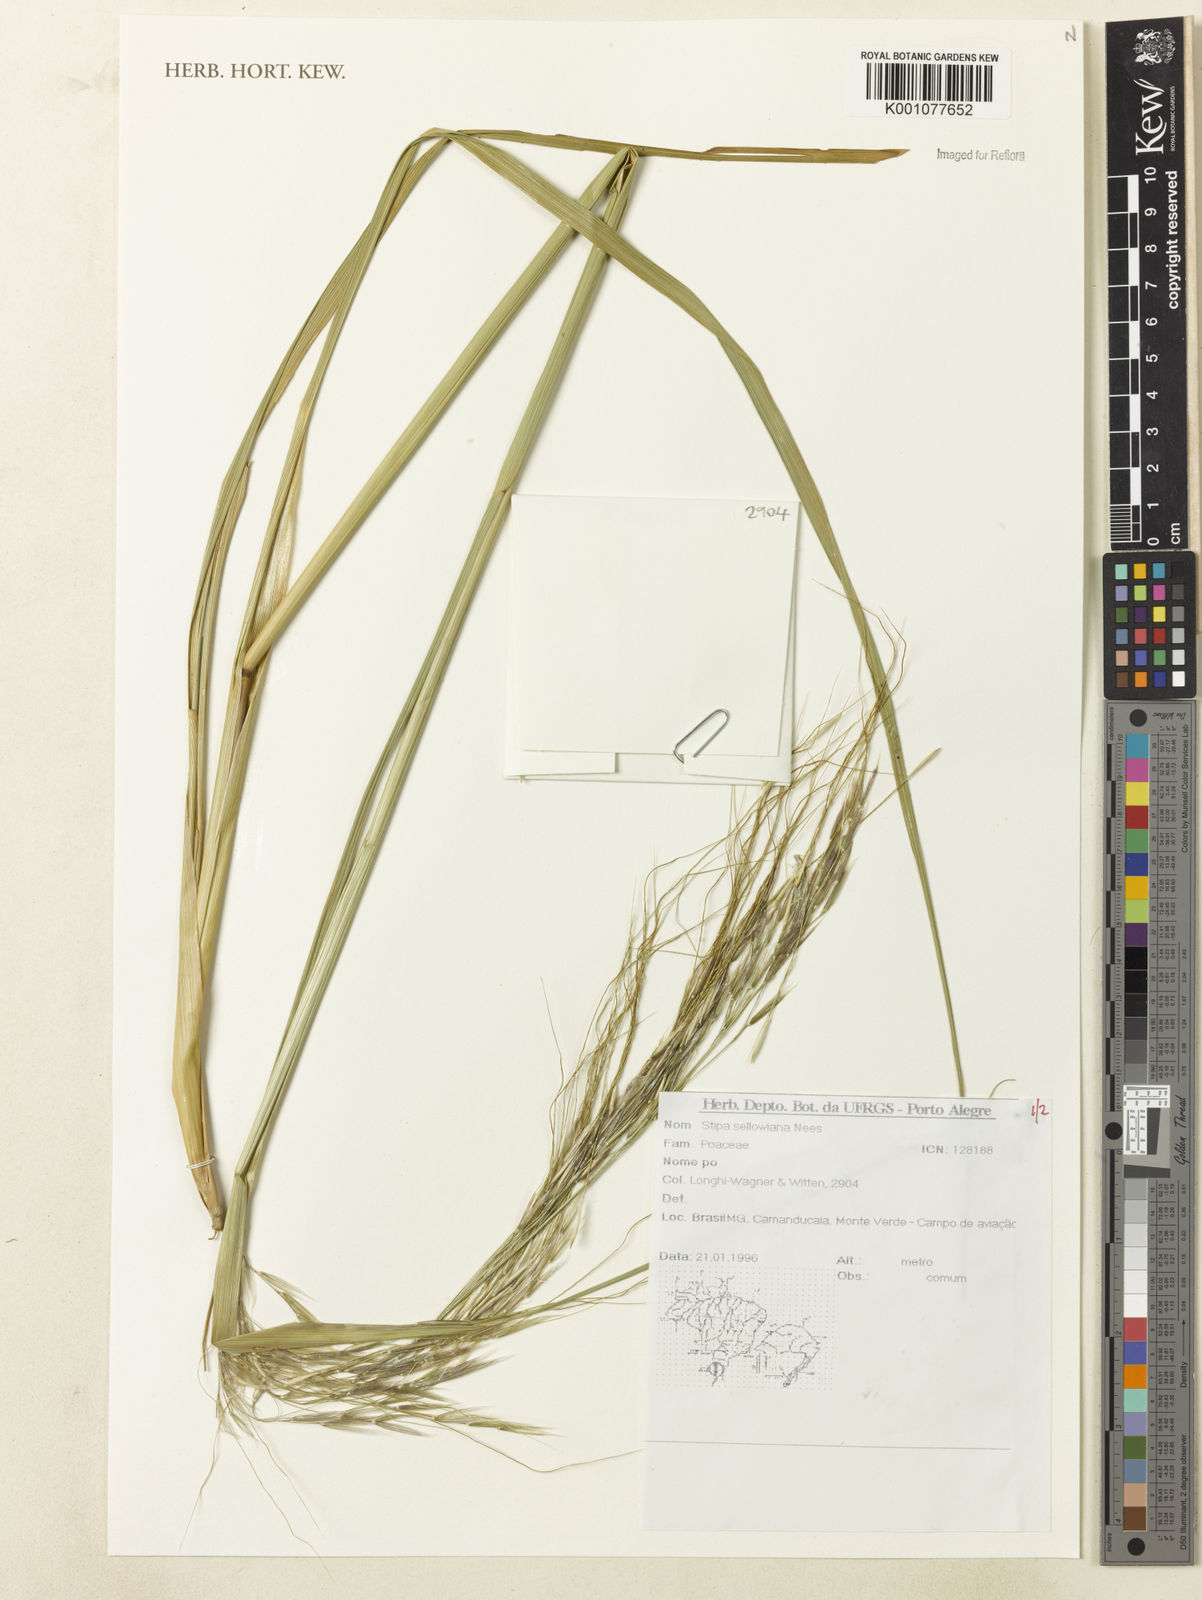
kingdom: Plantae
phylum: Tracheophyta
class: Liliopsida
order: Poales
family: Poaceae
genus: Nassella
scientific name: Nassella
